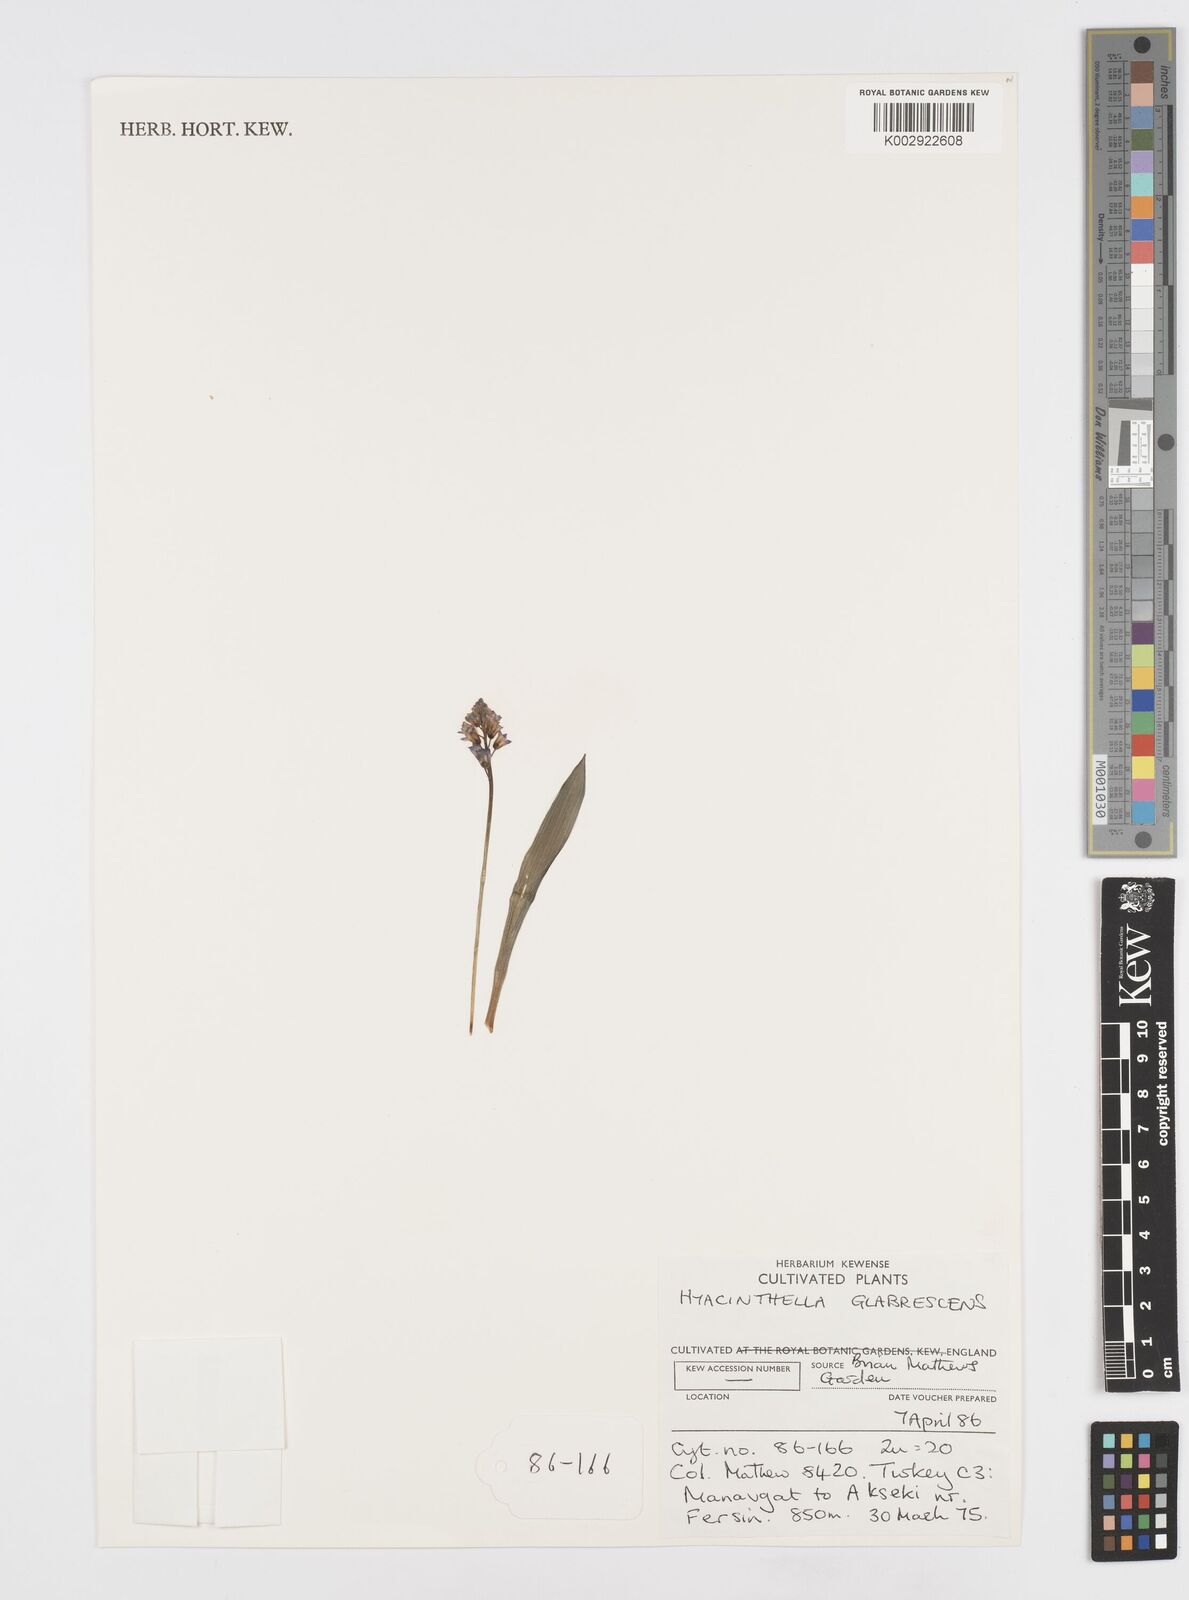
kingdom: Plantae
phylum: Tracheophyta
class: Liliopsida
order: Asparagales
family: Asparagaceae
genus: Hyacinthella
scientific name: Hyacinthella glabrescens
